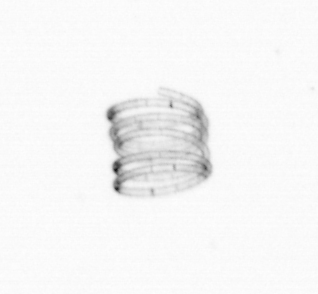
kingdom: Chromista
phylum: Ochrophyta
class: Bacillariophyceae
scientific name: Bacillariophyceae
